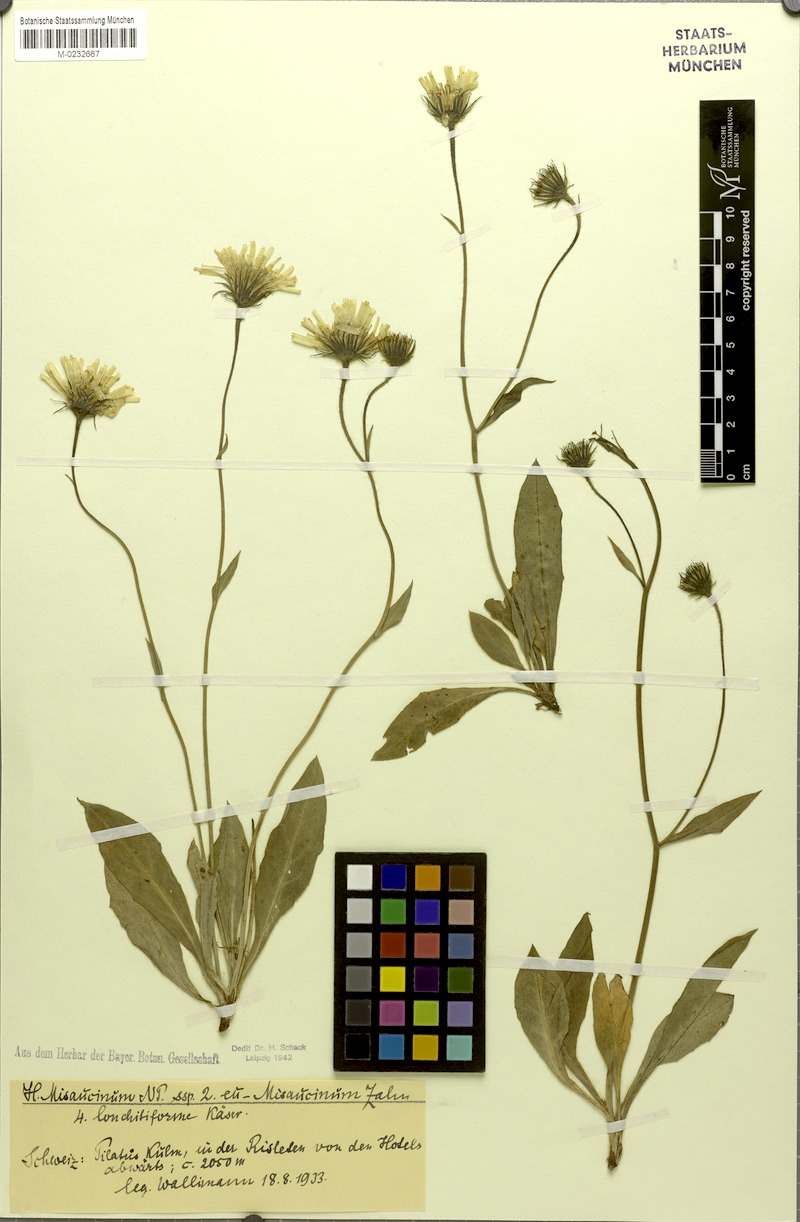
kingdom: Plantae
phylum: Tracheophyta
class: Magnoliopsida
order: Asterales
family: Asteraceae
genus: Hieracium
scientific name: Hieracium misaucinum
